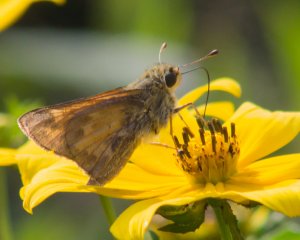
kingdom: Animalia
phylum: Arthropoda
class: Insecta
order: Lepidoptera
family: Hesperiidae
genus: Atalopedes
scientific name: Atalopedes campestris
